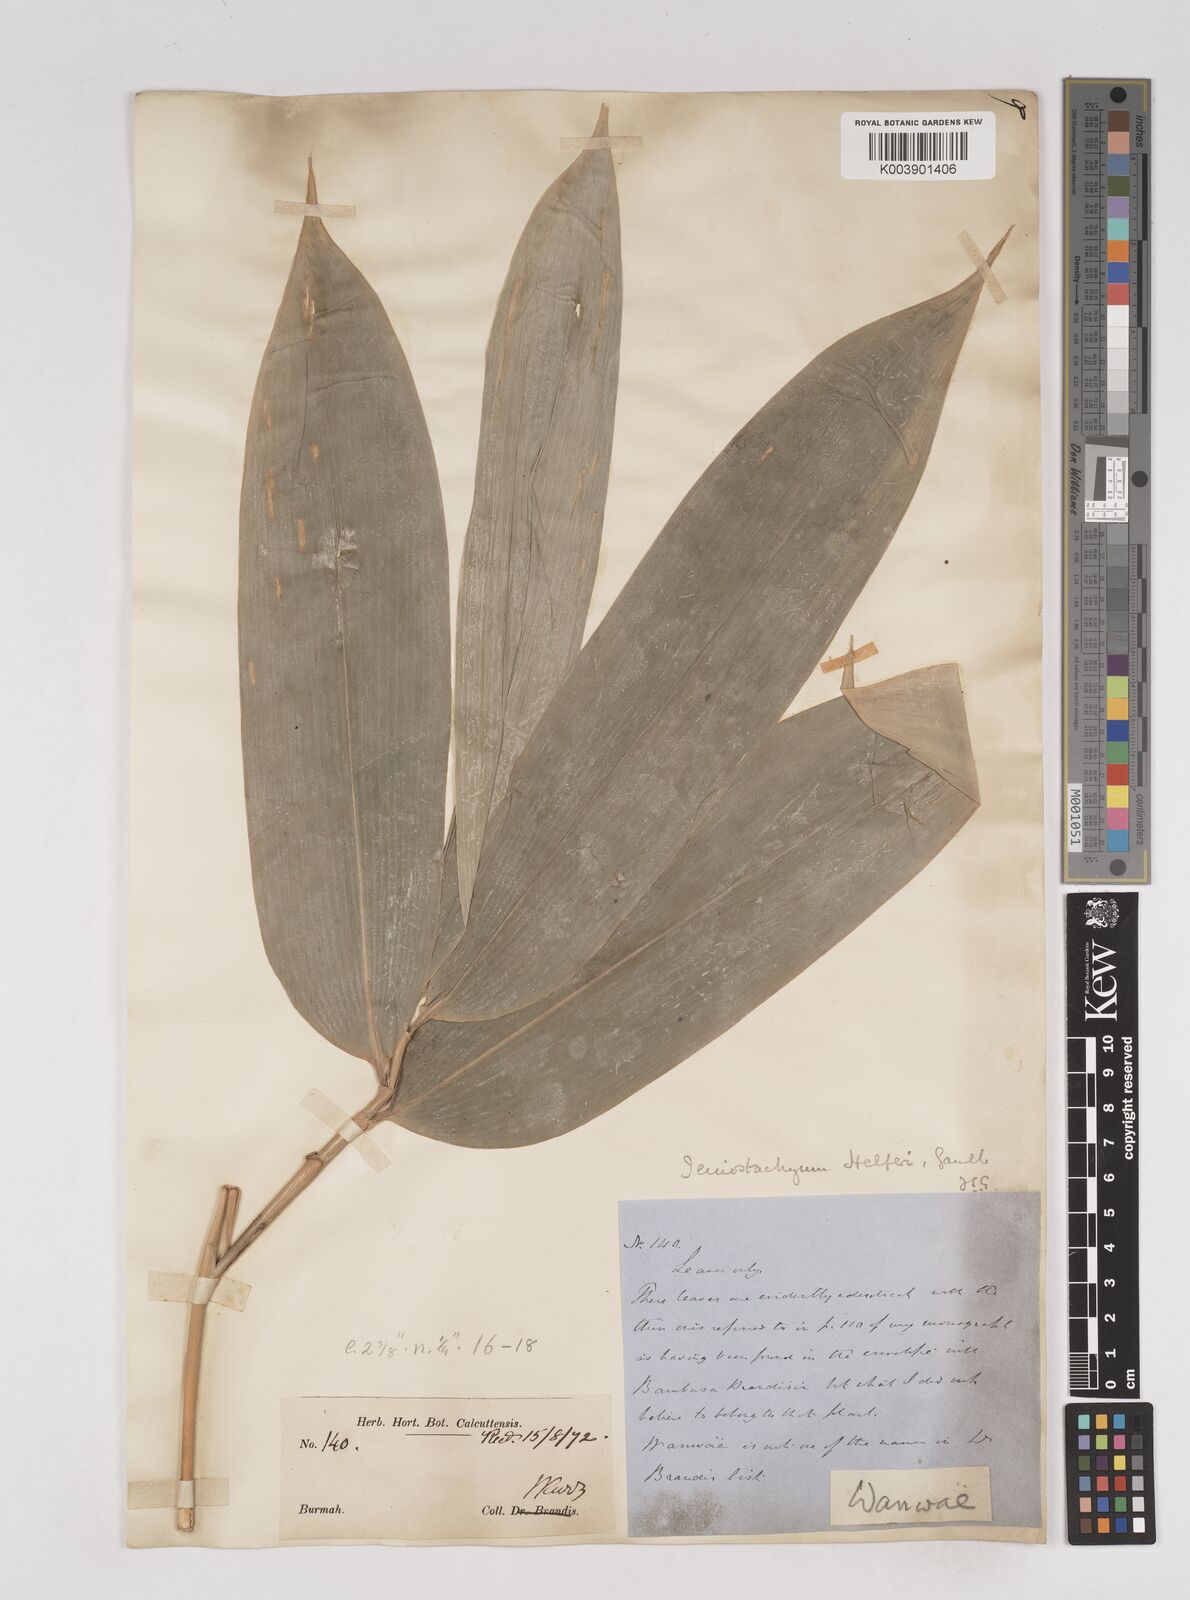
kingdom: Plantae
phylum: Tracheophyta
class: Liliopsida
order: Poales
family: Poaceae
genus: Schizostachyum
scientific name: Schizostachyum helferi
